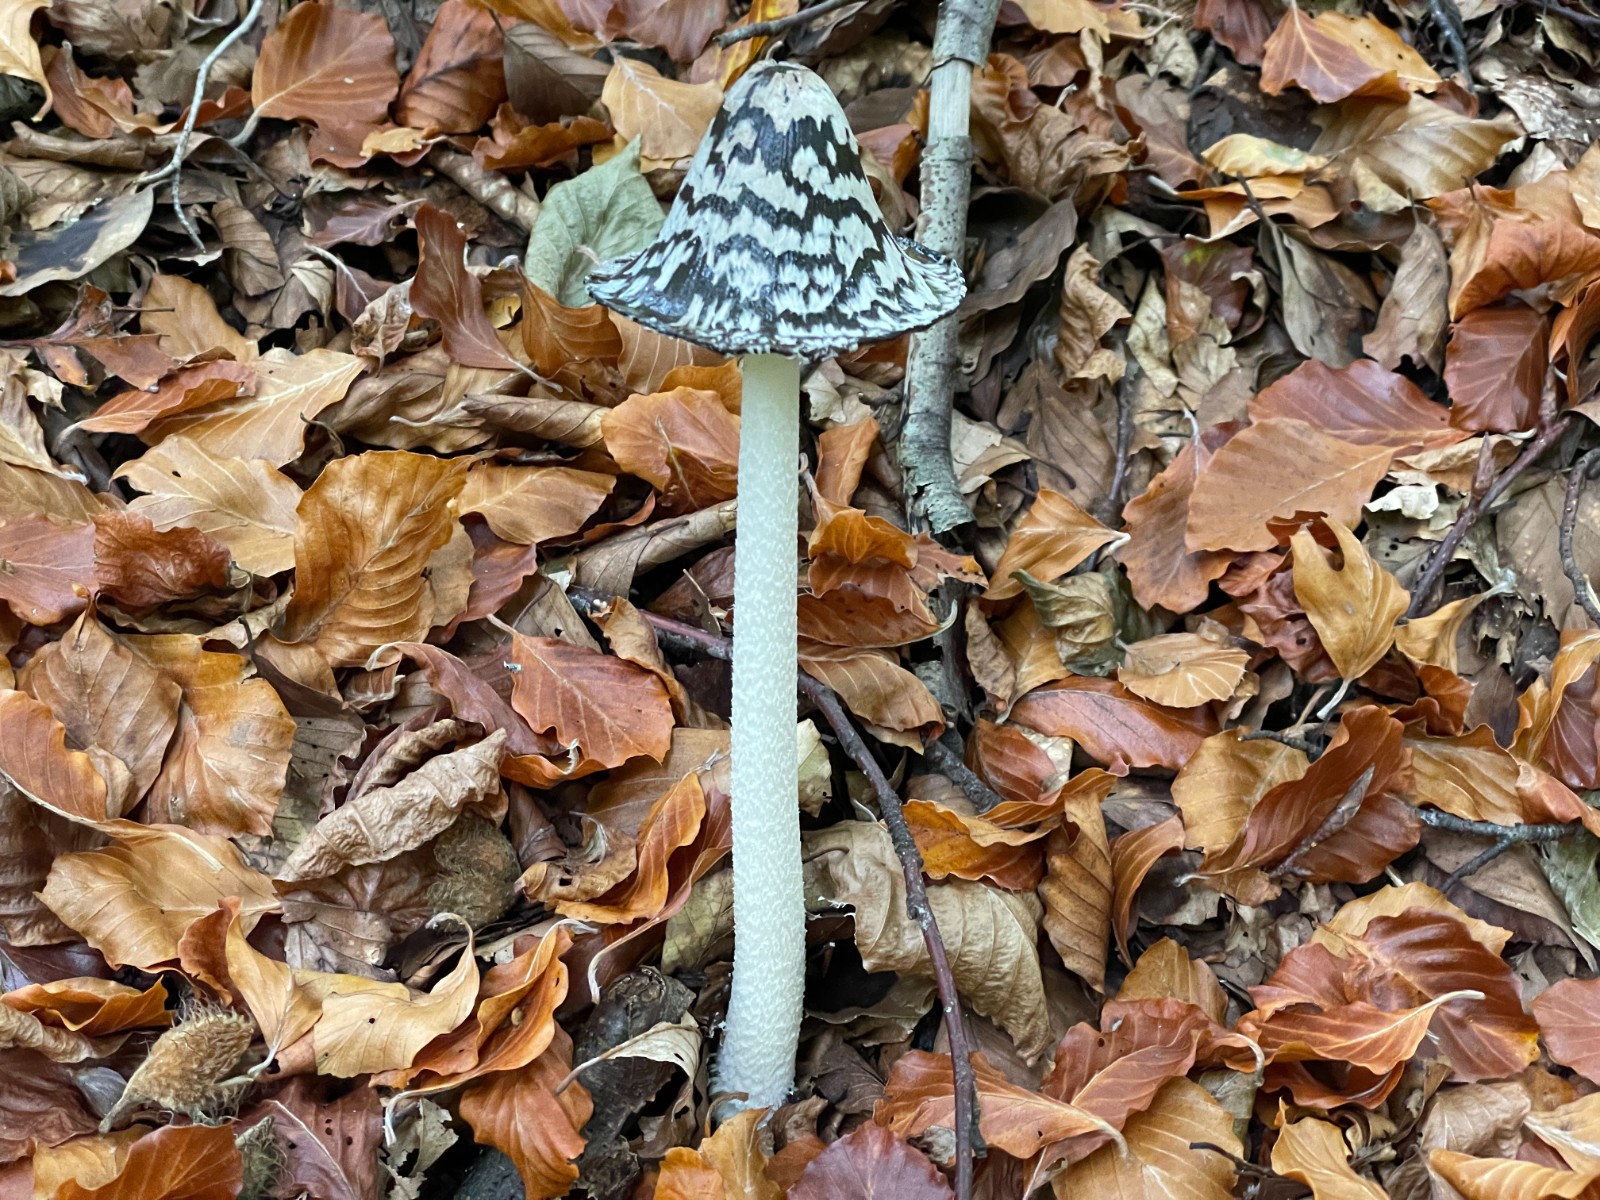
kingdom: Fungi
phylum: Basidiomycota
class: Agaricomycetes
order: Agaricales
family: Psathyrellaceae
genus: Coprinopsis
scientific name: Coprinopsis picacea
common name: skade-blækhat
